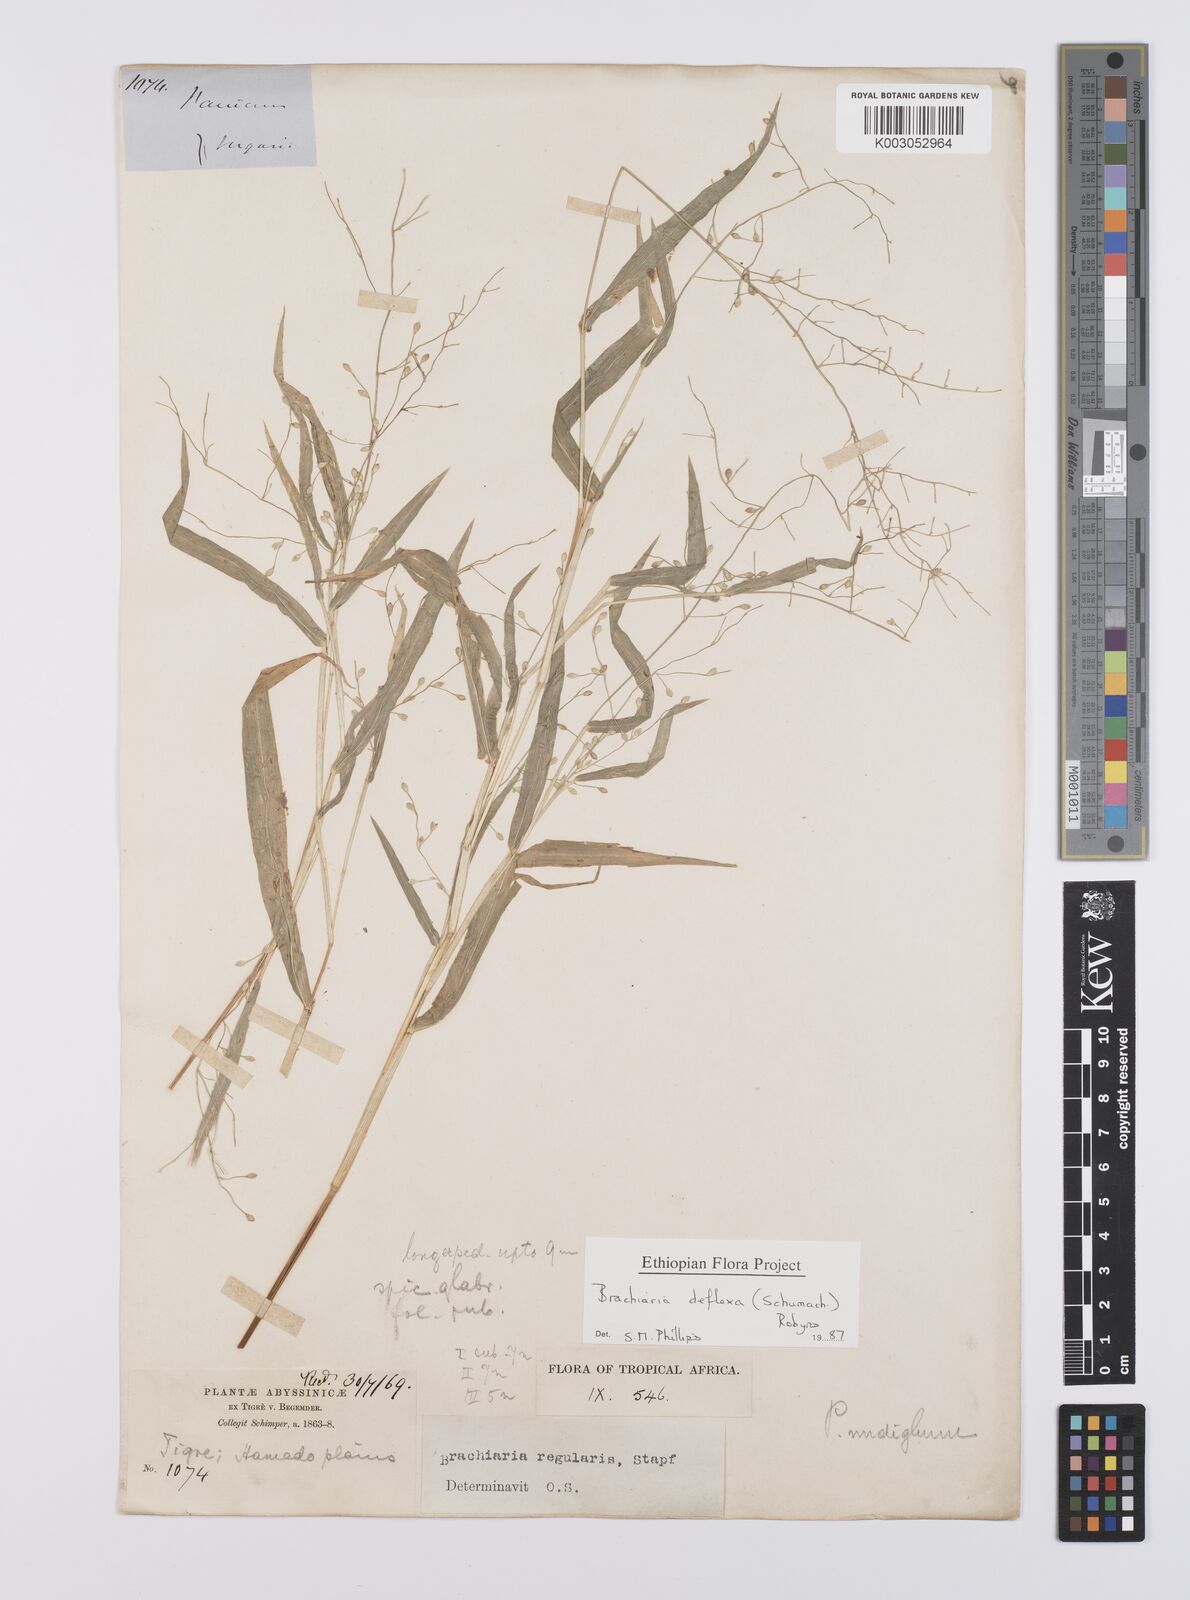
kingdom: Plantae
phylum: Tracheophyta
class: Liliopsida
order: Poales
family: Poaceae
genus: Urochloa
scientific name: Urochloa deflexa
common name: Guinea millet
